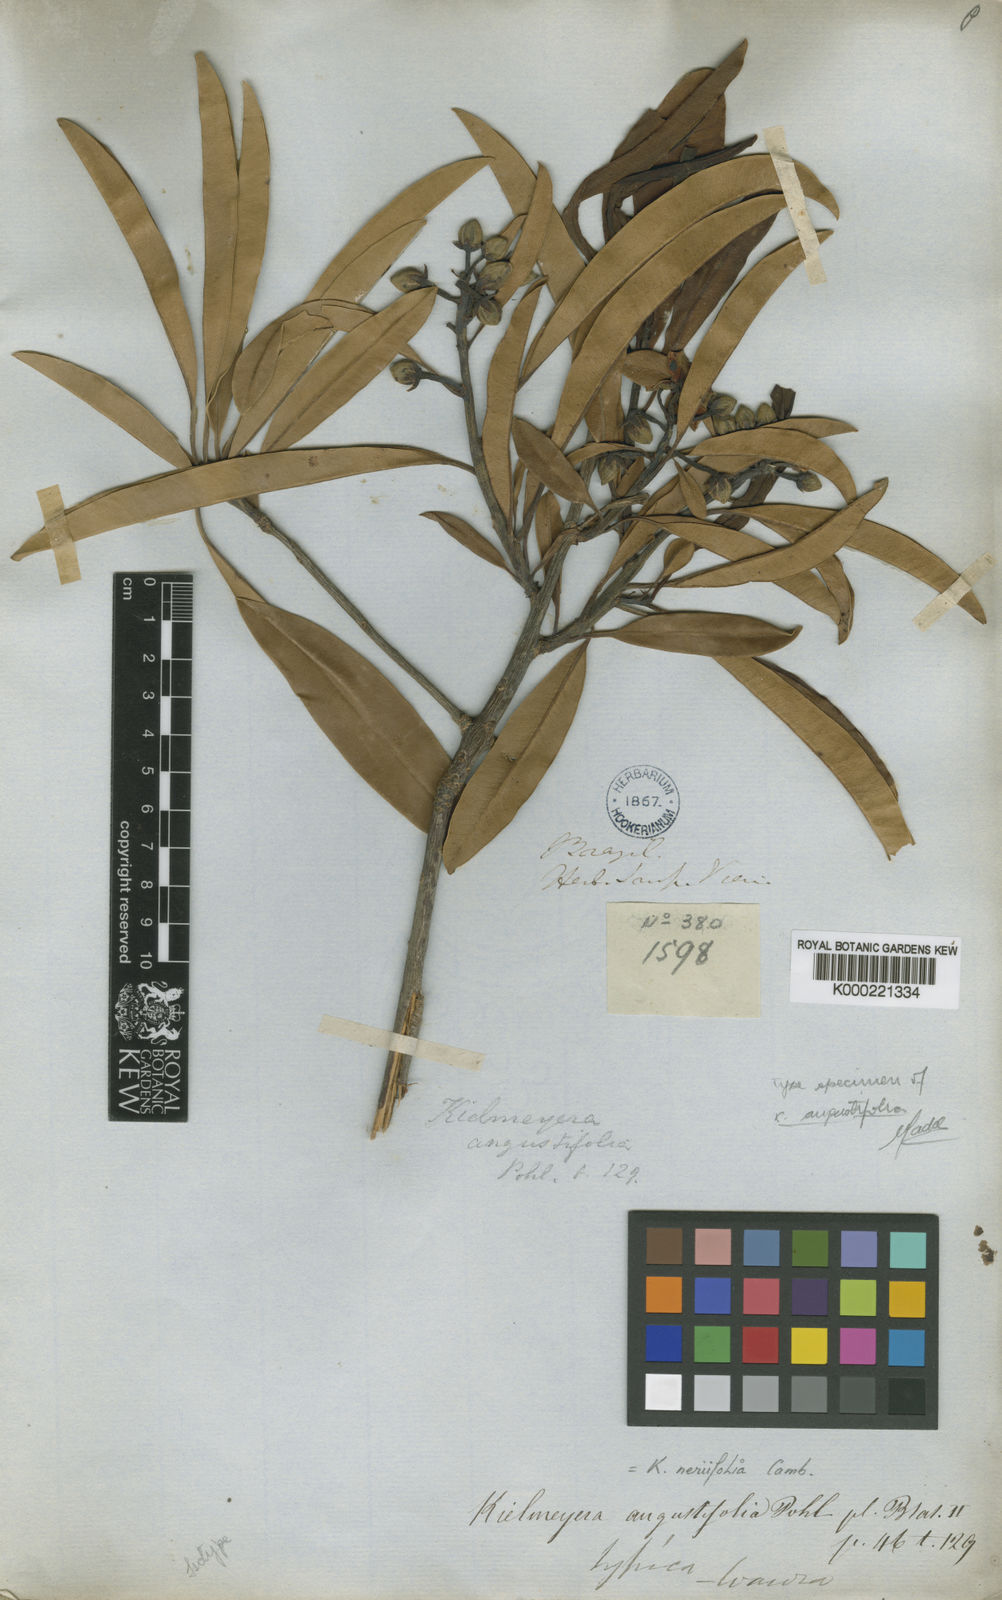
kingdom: Plantae
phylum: Tracheophyta
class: Magnoliopsida
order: Malpighiales
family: Calophyllaceae
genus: Kielmeyera
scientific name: Kielmeyera neriifolia
